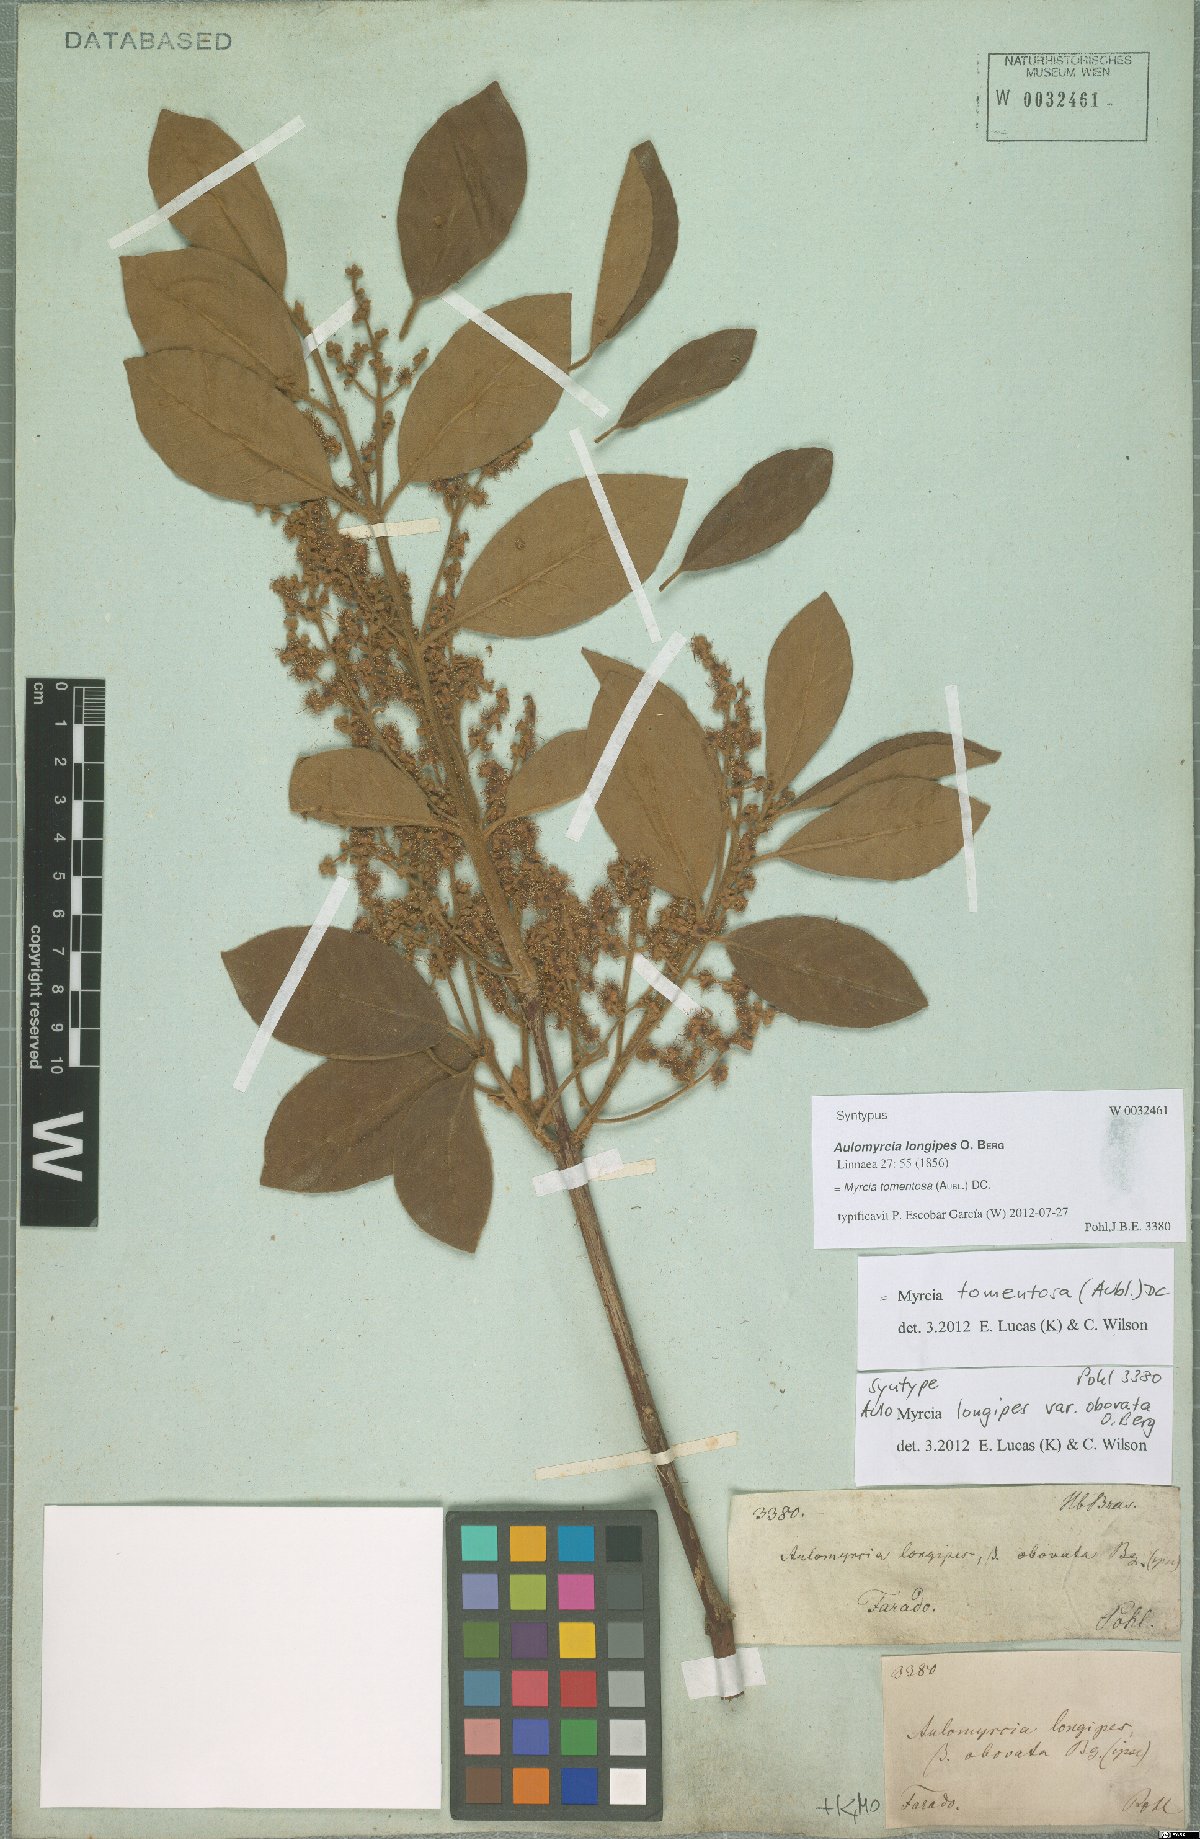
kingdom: Plantae
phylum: Tracheophyta
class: Magnoliopsida
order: Myrtales
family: Myrtaceae
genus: Myrcia
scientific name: Myrcia tomentosa
